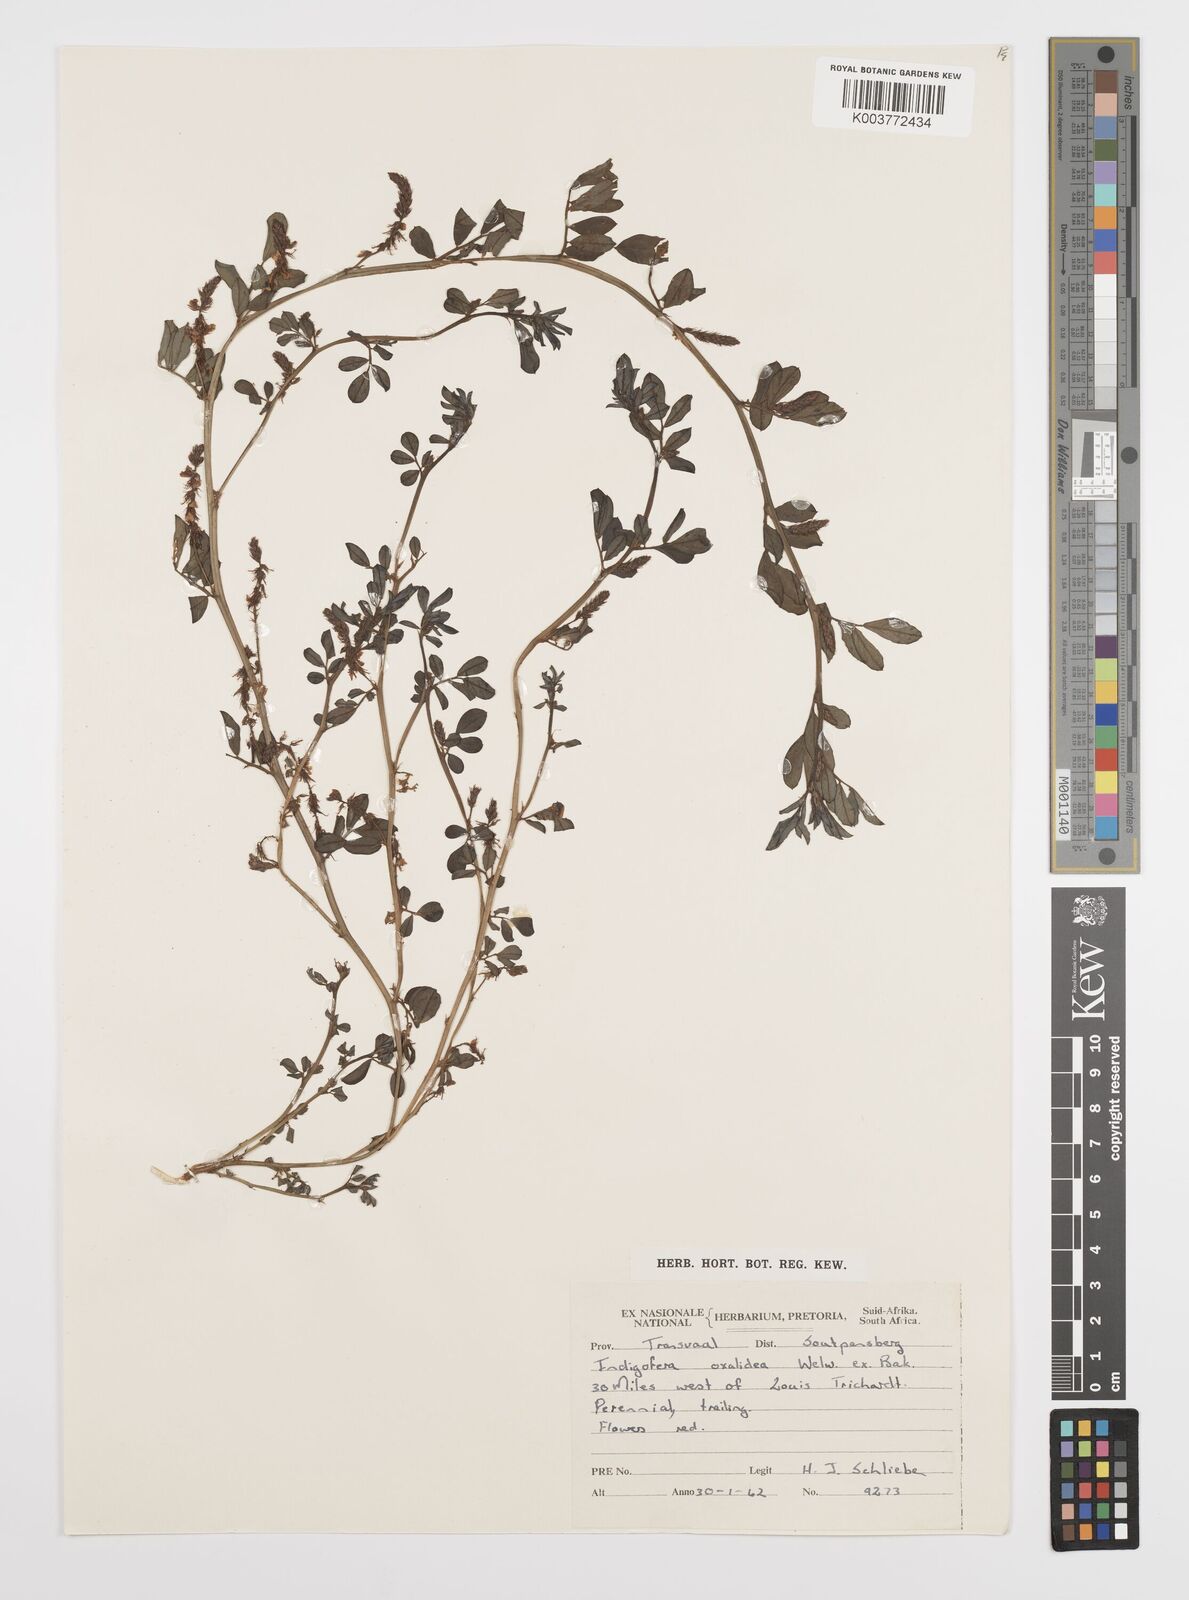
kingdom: Plantae
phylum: Tracheophyta
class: Magnoliopsida
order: Fabales
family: Fabaceae
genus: Indigofera
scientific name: Indigofera oxalidea
